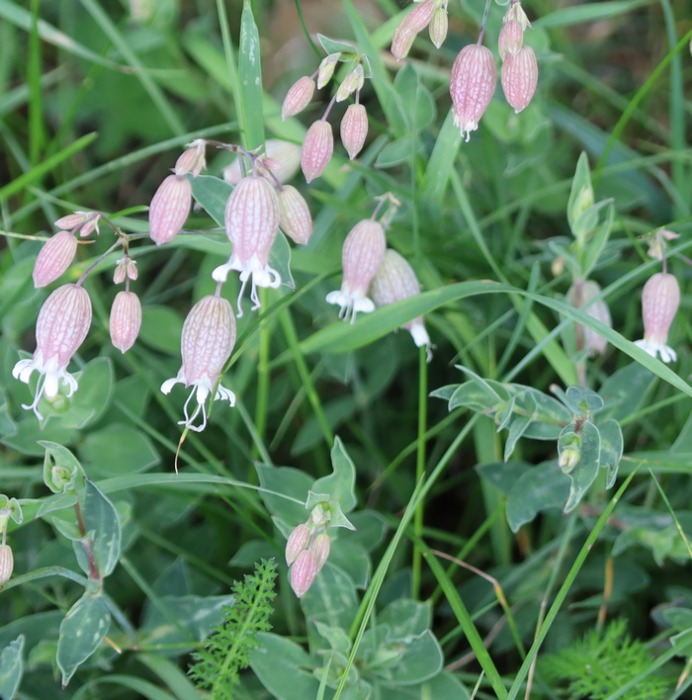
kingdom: Plantae
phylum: Tracheophyta
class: Magnoliopsida
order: Caryophyllales
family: Caryophyllaceae
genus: Silene
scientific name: Silene vulgaris
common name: Blæresmælde
